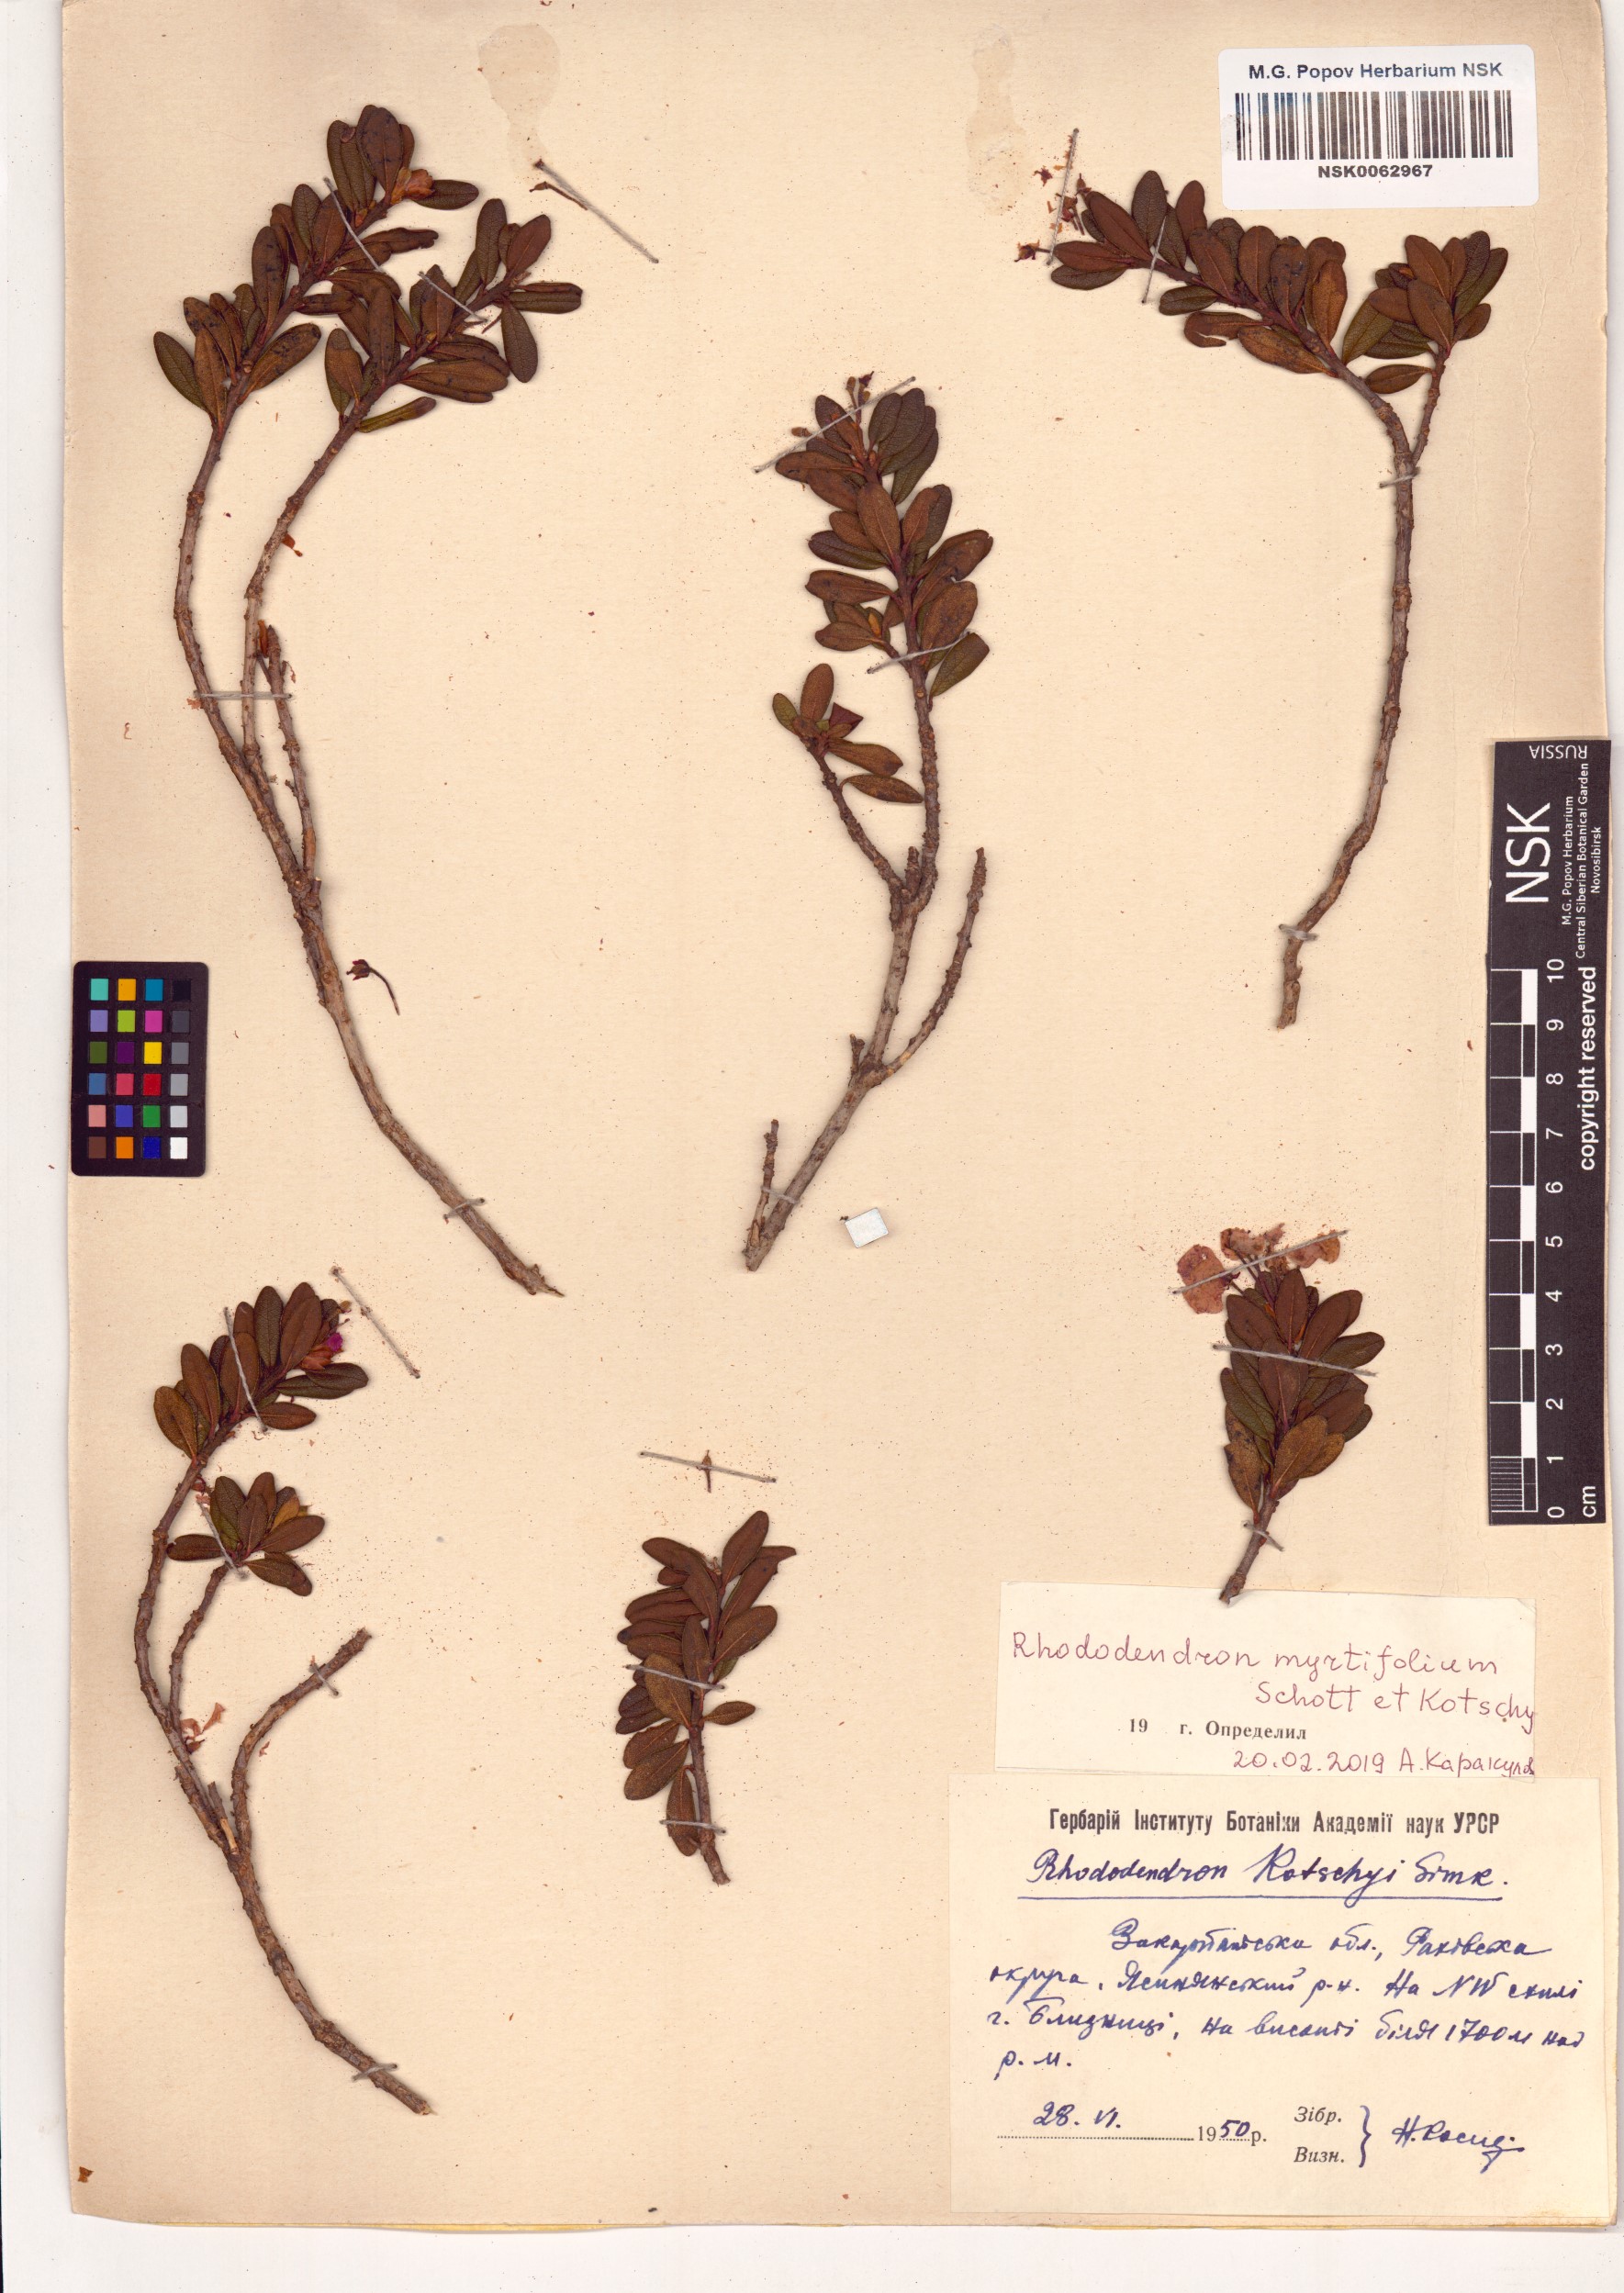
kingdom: Plantae
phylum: Tracheophyta
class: Magnoliopsida
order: Ericales
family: Ericaceae
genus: Rhododendron
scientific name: Rhododendron kotschyi
